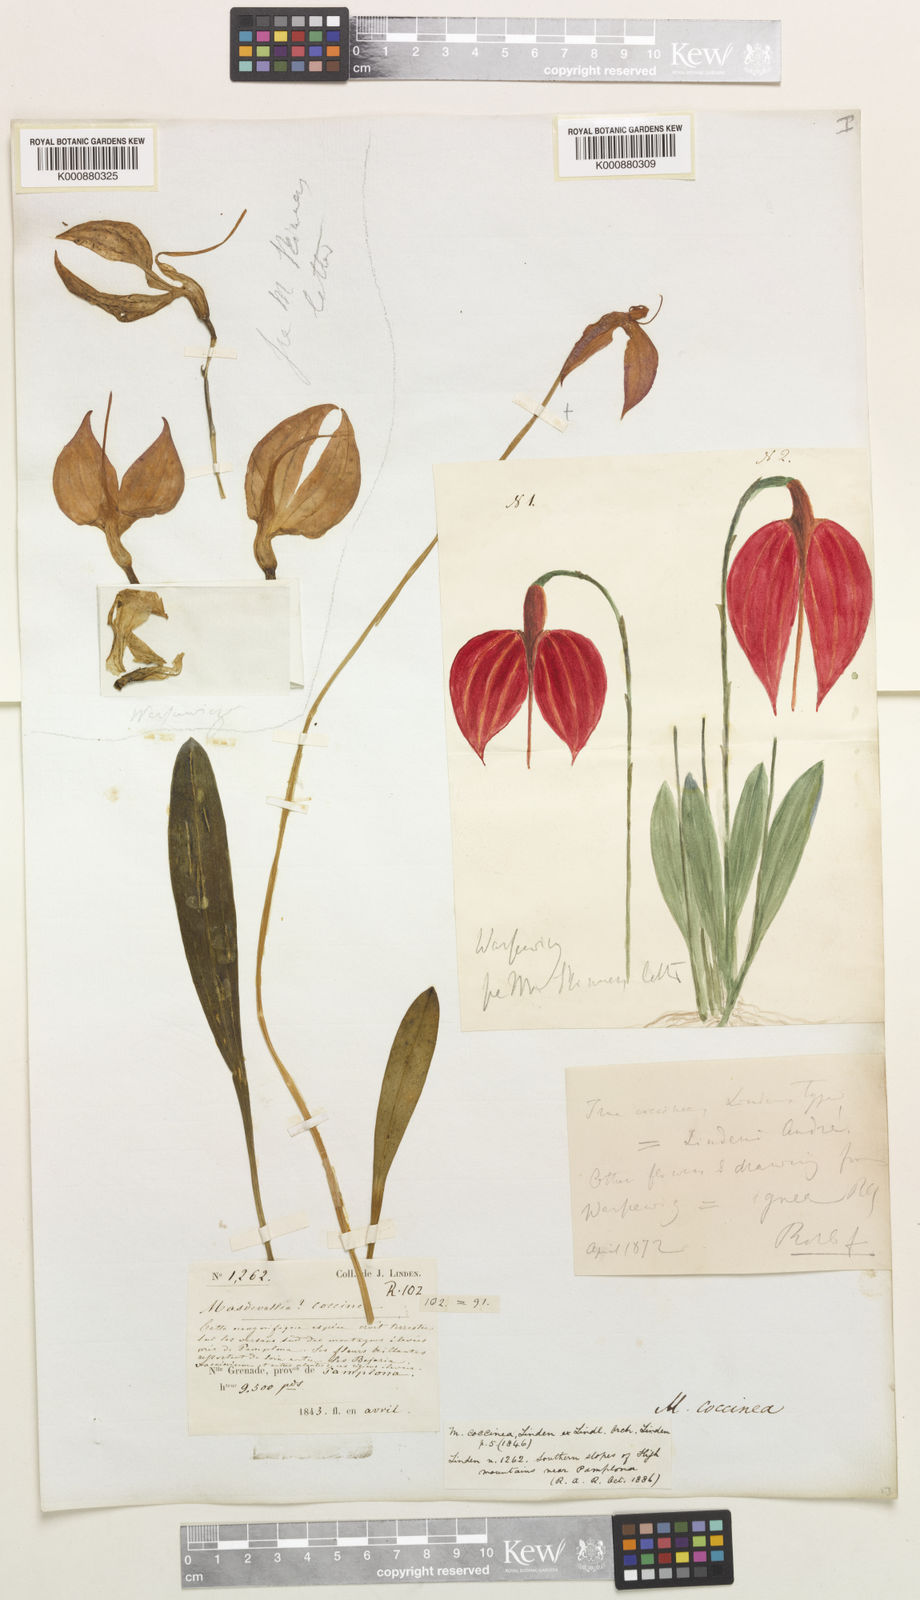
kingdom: Plantae
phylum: Tracheophyta
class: Liliopsida
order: Asparagales
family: Orchidaceae
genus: Masdevallia
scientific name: Masdevallia coccinea
